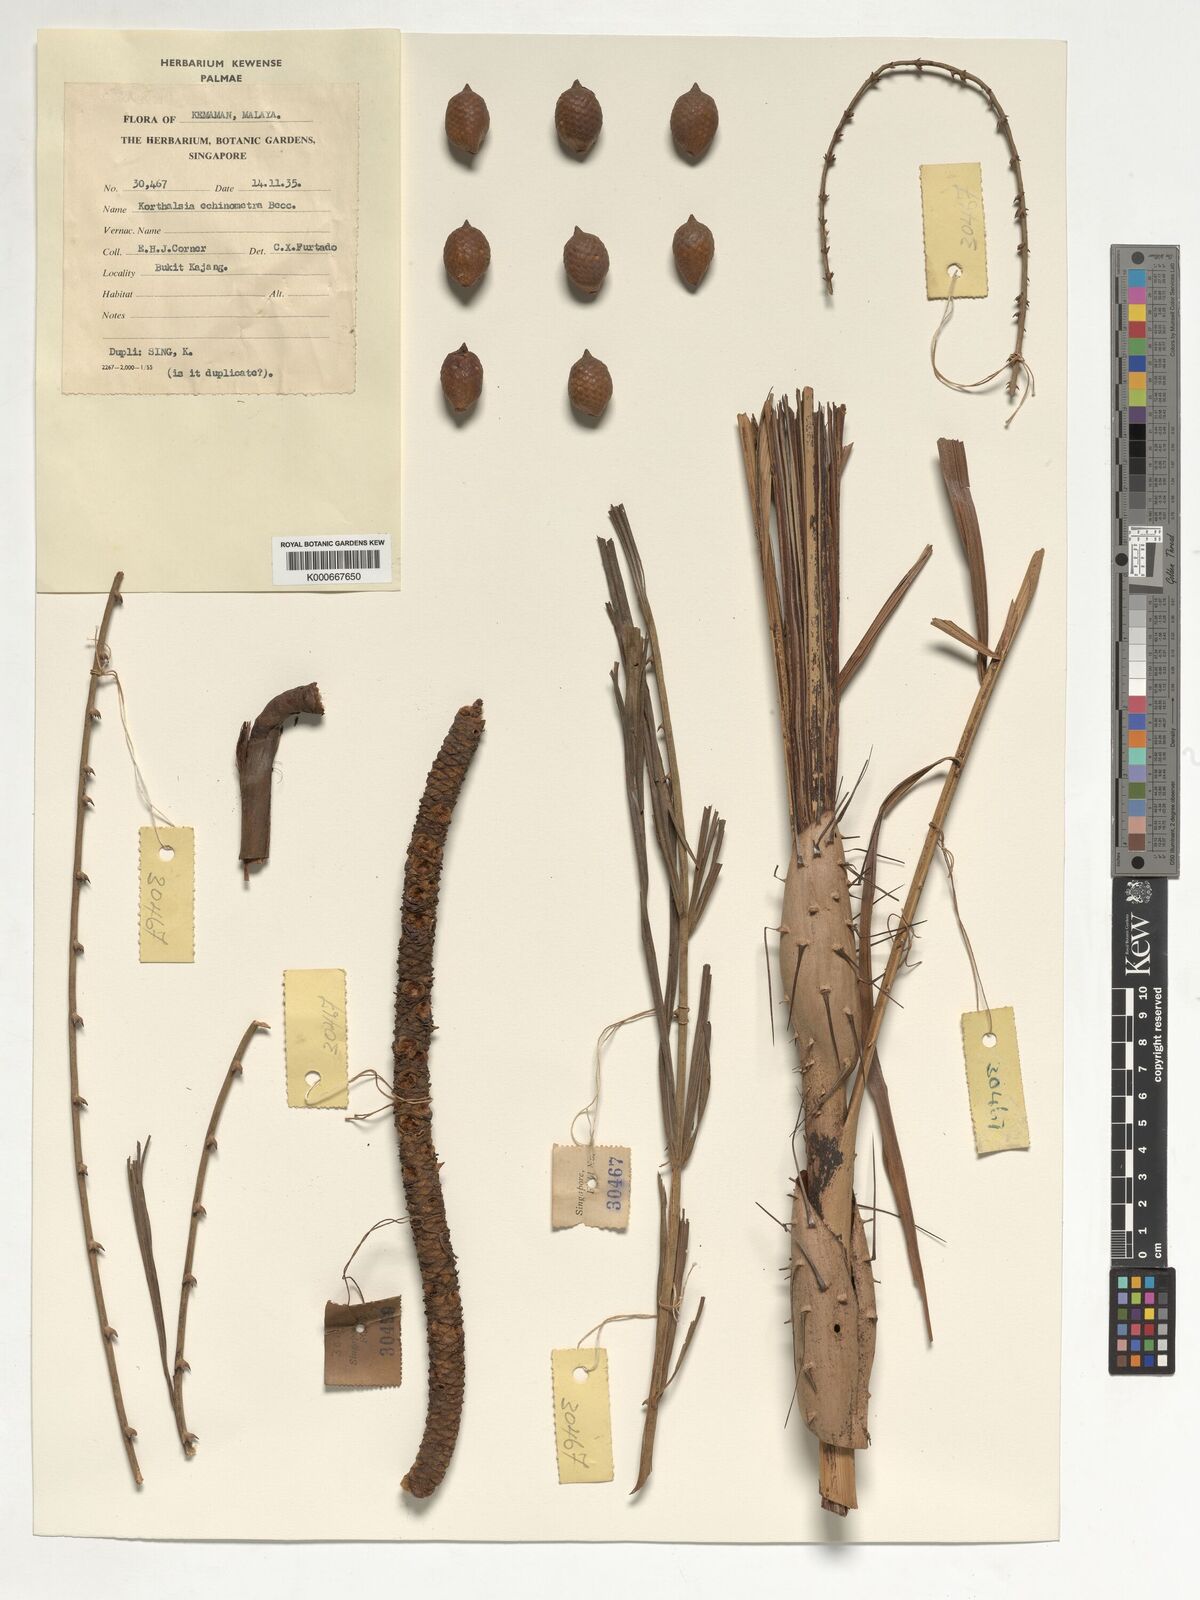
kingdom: Plantae
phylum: Tracheophyta
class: Liliopsida
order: Arecales
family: Arecaceae
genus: Korthalsia
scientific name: Korthalsia echinometra
